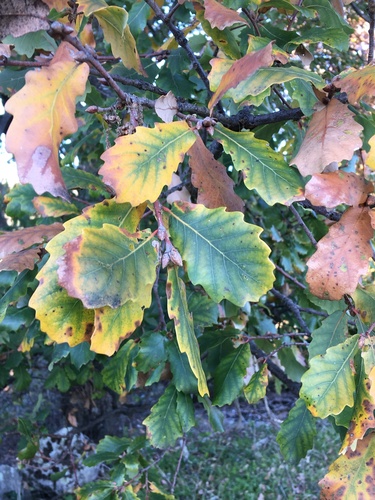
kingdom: Plantae
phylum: Tracheophyta
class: Magnoliopsida
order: Fagales
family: Fagaceae
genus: Quercus
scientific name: Quercus faginea
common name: Gall oak tree
